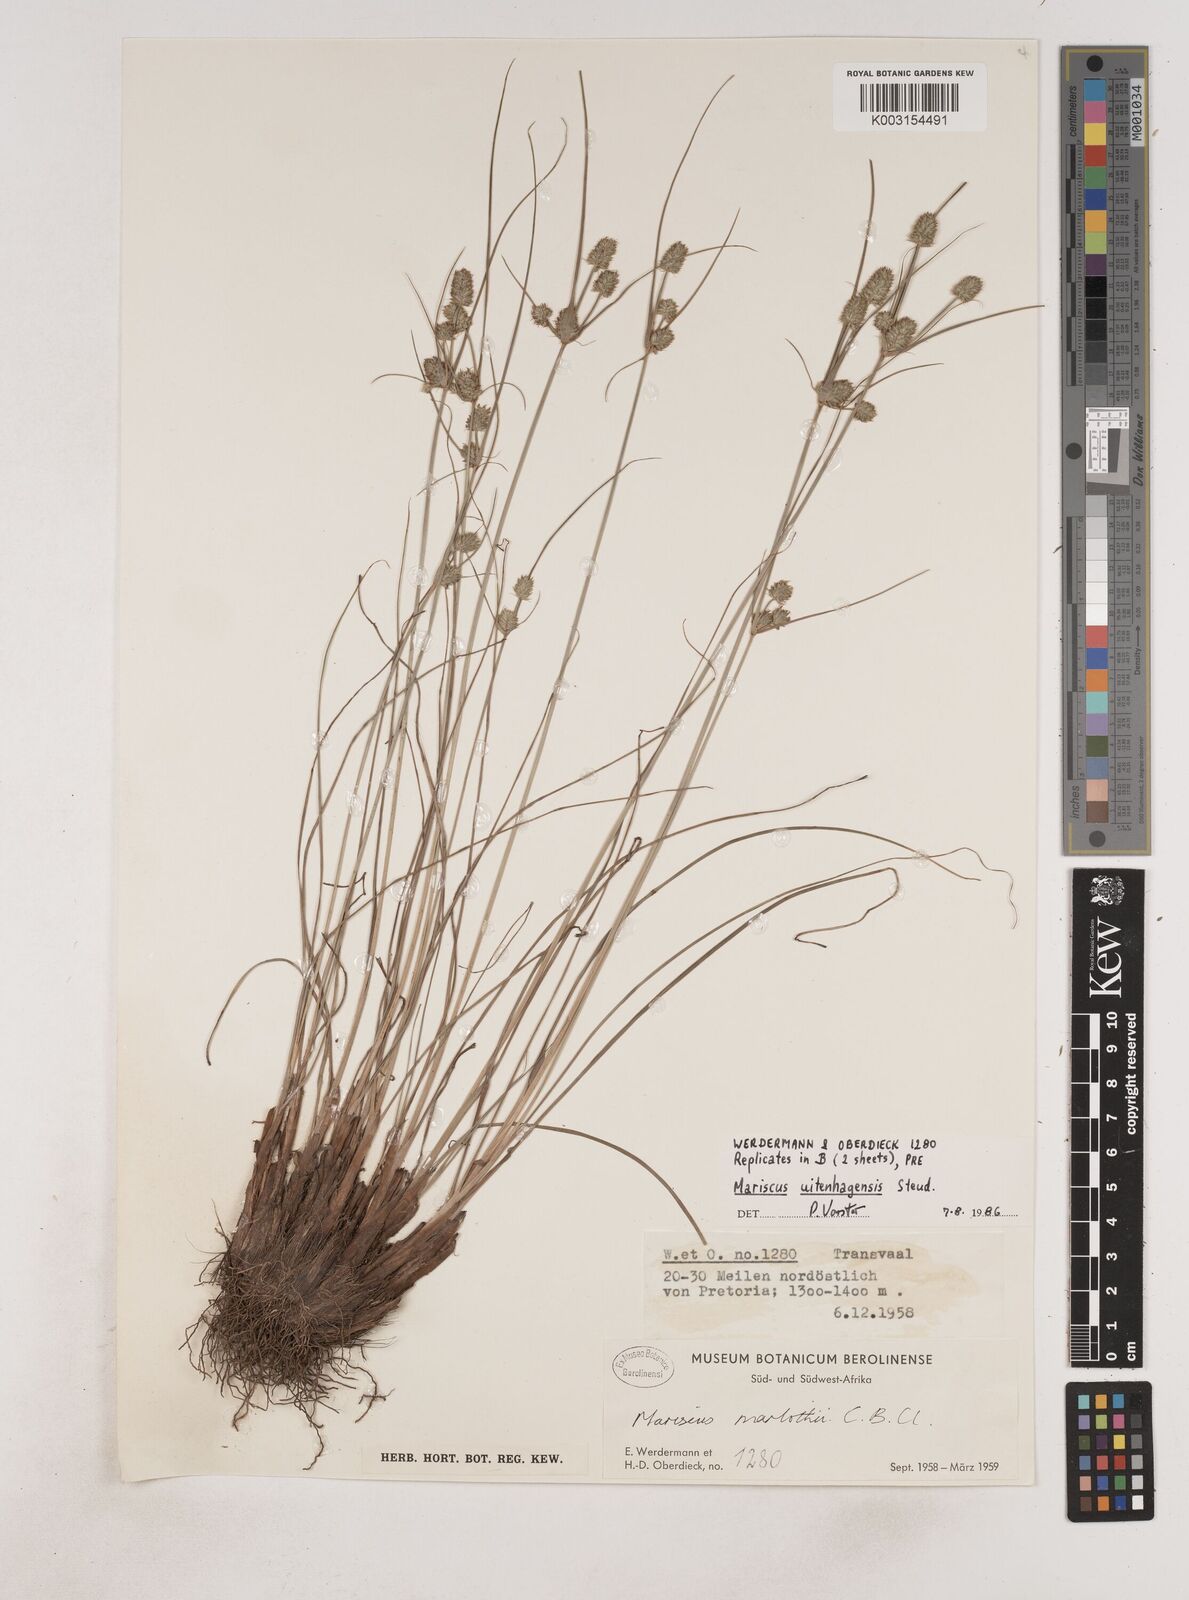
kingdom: Plantae
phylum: Tracheophyta
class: Liliopsida
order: Poales
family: Cyperaceae
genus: Cyperus
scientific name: Cyperus capensis
